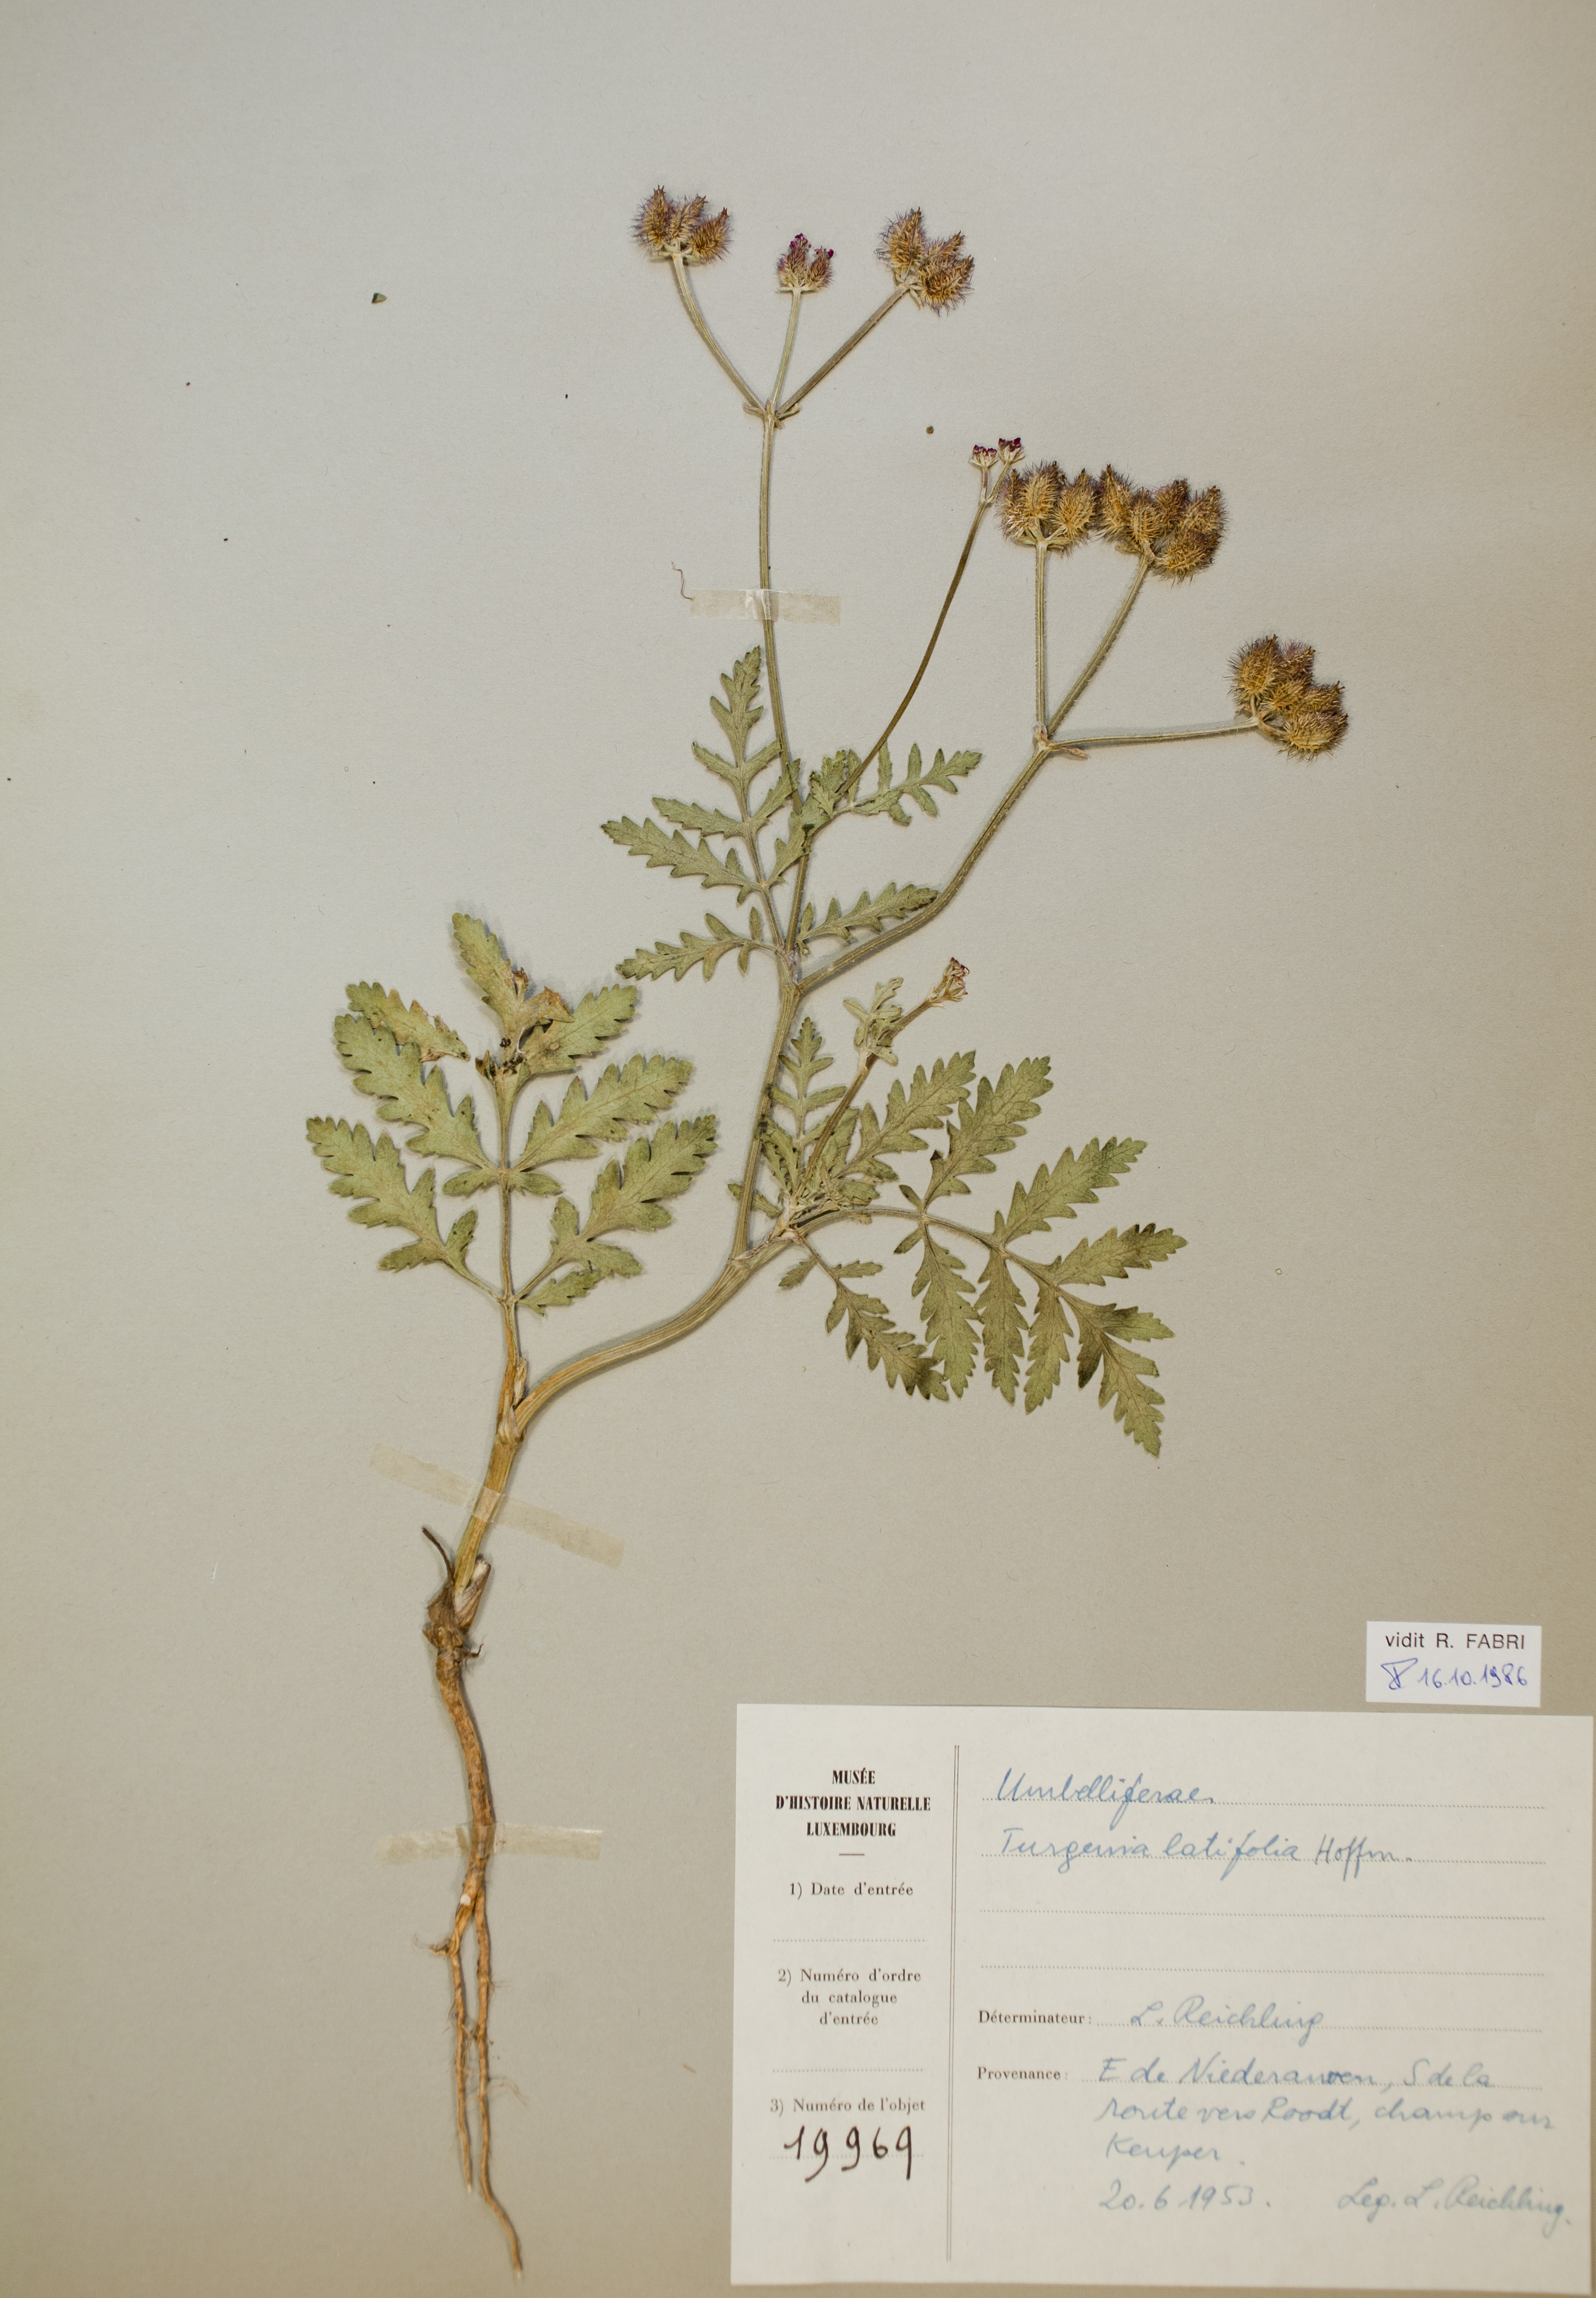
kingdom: Plantae
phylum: Tracheophyta
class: Magnoliopsida
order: Apiales
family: Apiaceae
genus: Turgenia
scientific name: Turgenia latifolia
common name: Greater bur-parsley
